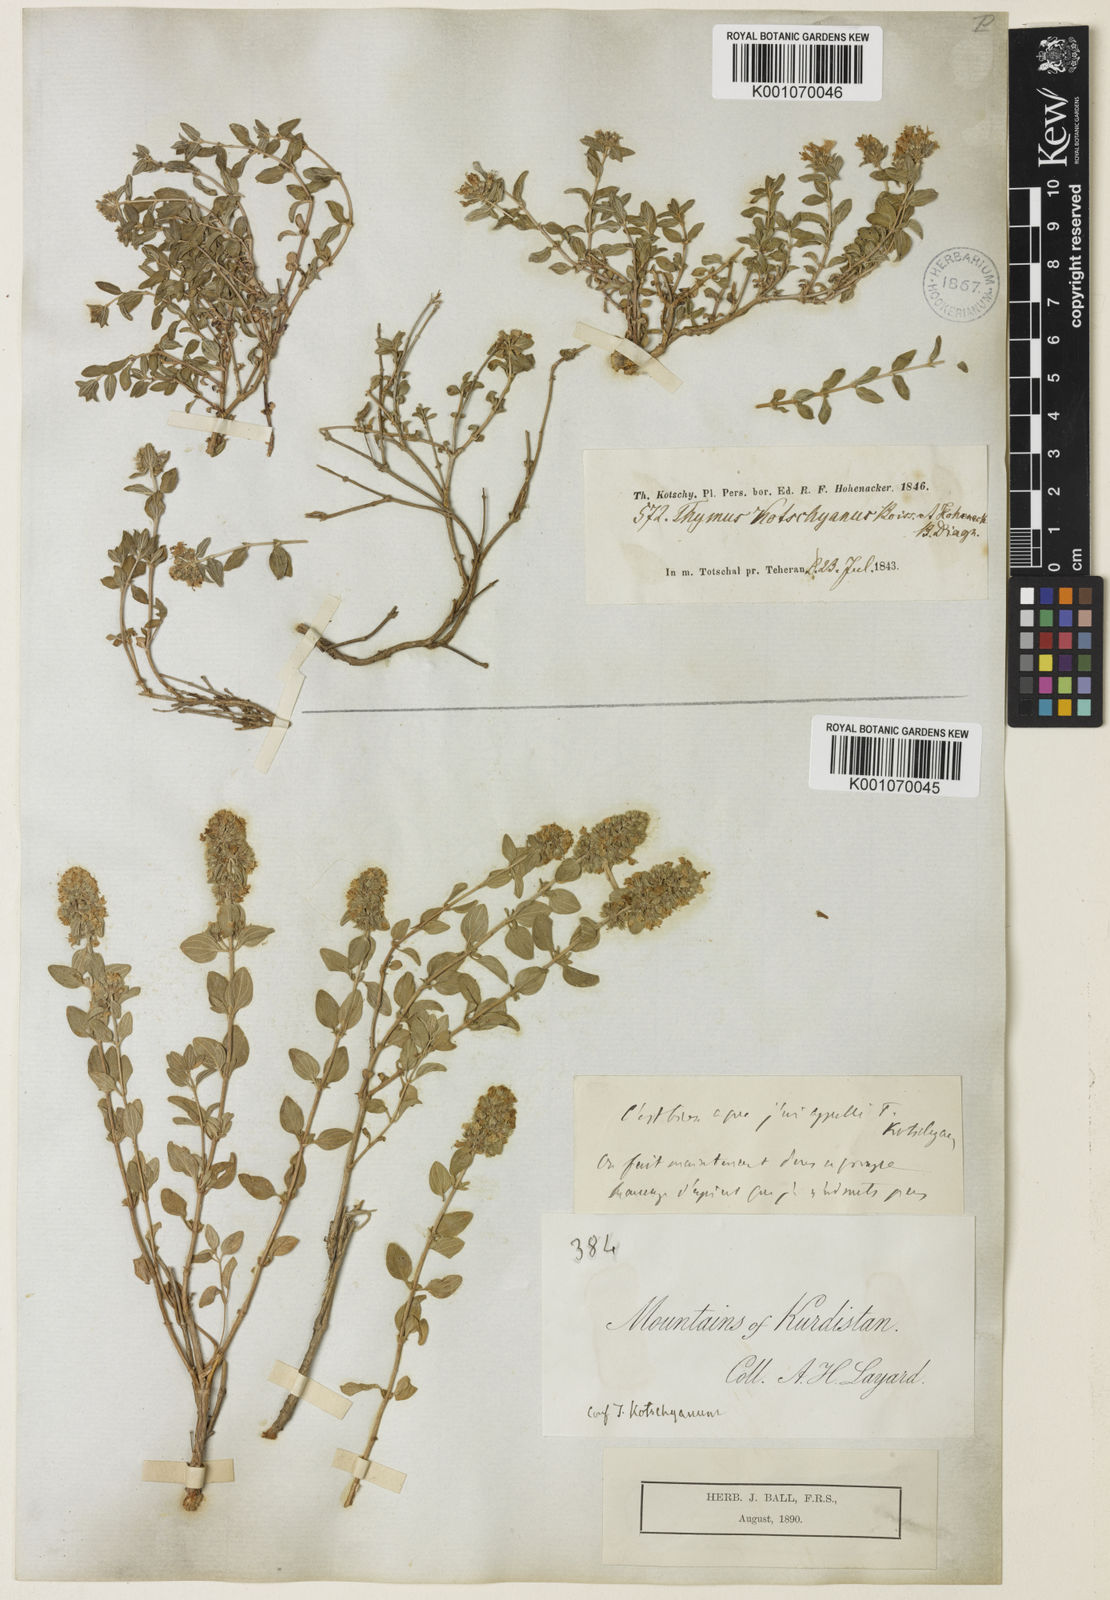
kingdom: Plantae
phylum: Tracheophyta
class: Magnoliopsida
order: Lamiales
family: Lamiaceae
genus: Thymus
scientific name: Thymus serpyllum
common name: Breckland thyme
